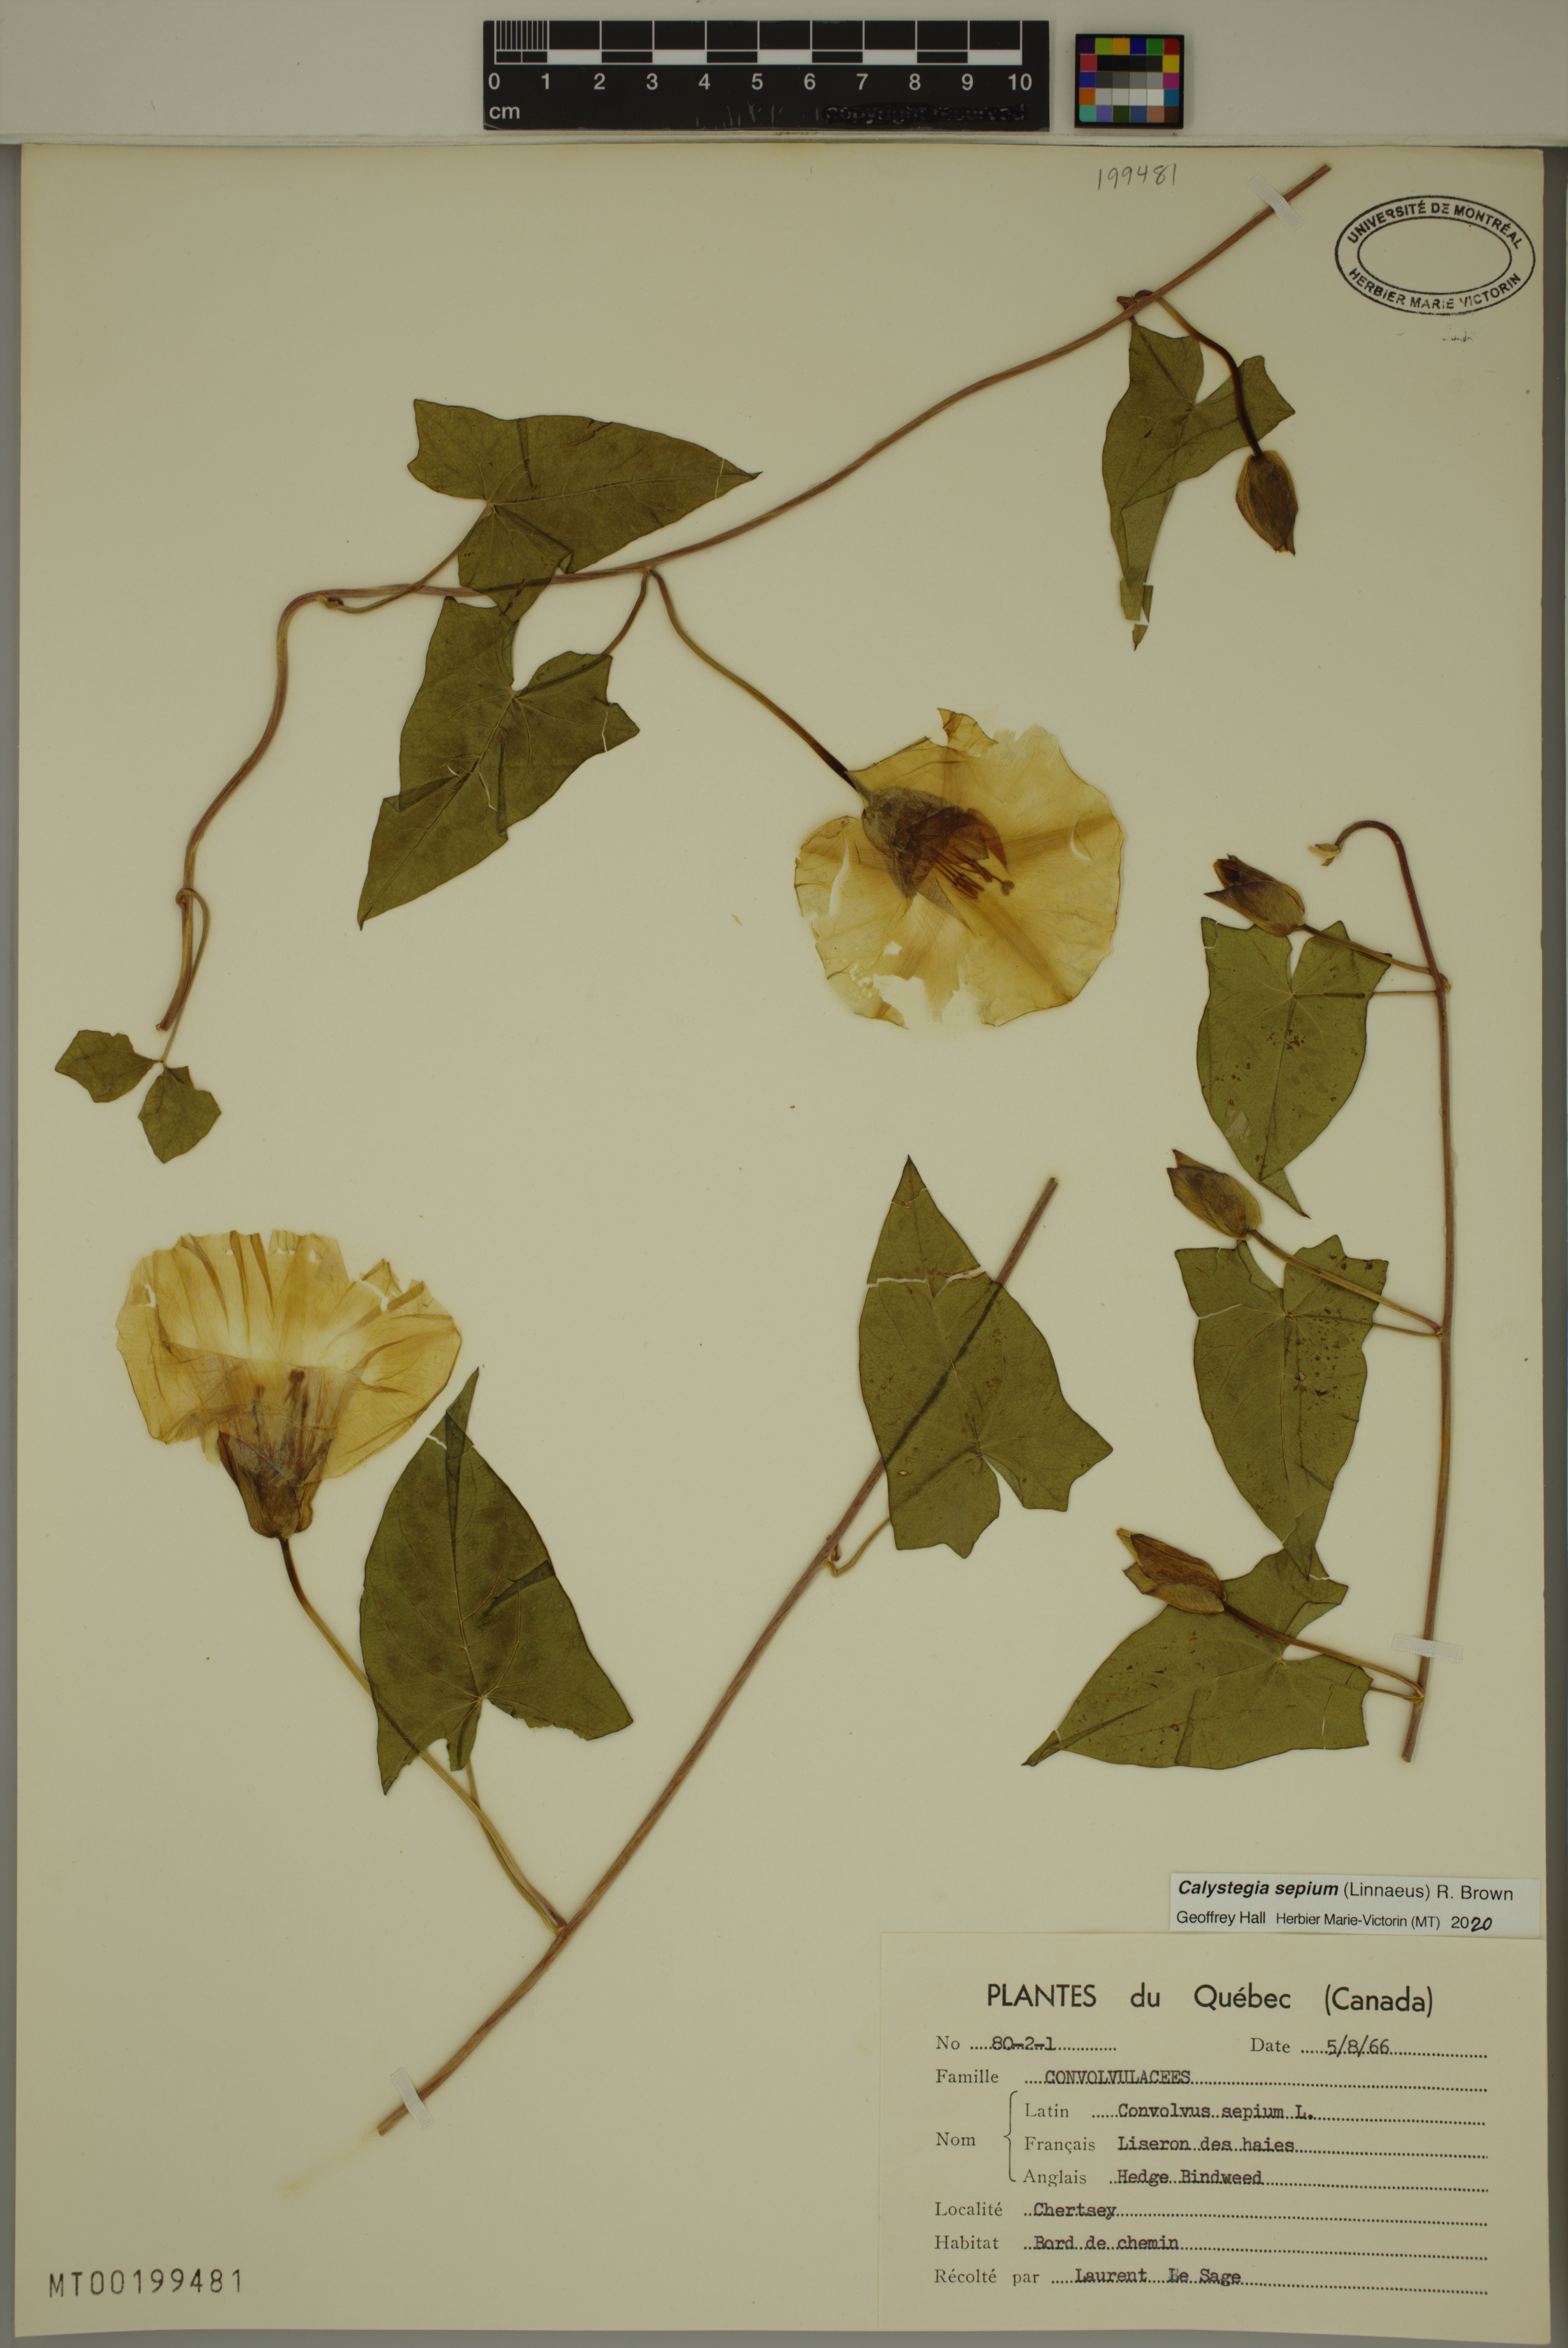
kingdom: Plantae
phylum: Tracheophyta
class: Magnoliopsida
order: Solanales
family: Convolvulaceae
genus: Calystegia
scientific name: Calystegia sepium
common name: Hedge bindweed
